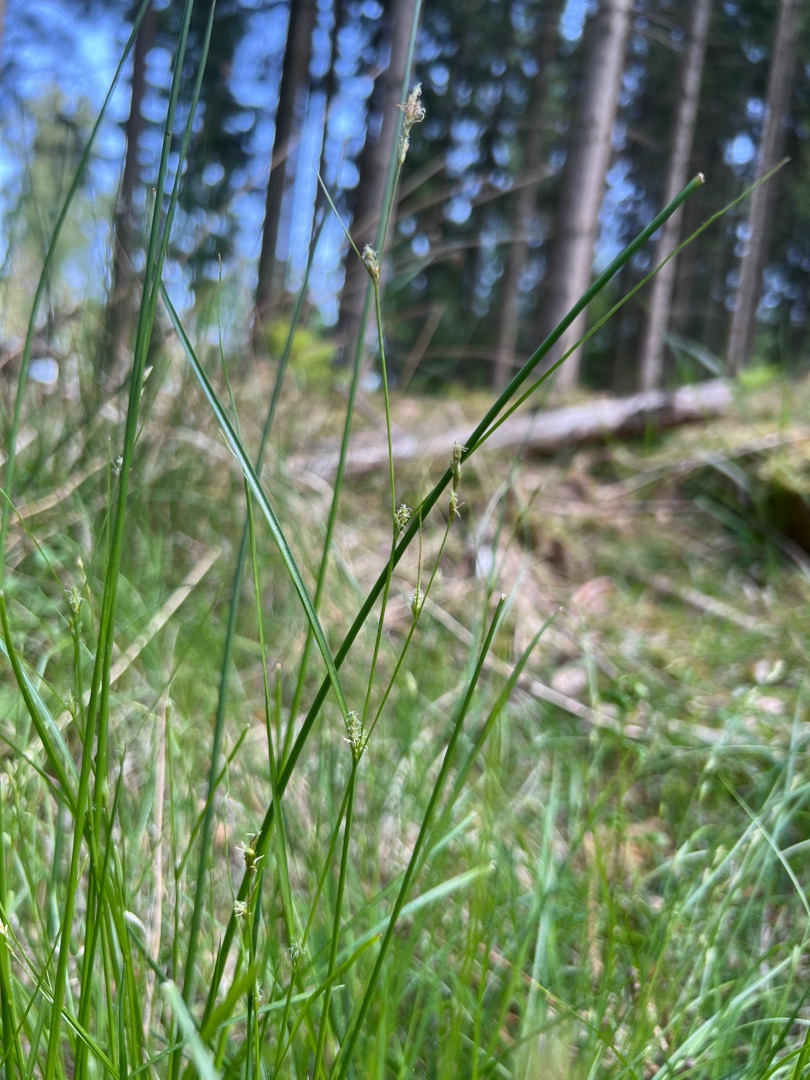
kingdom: Plantae
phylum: Tracheophyta
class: Liliopsida
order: Poales
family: Cyperaceae
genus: Carex
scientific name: Carex remota
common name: Akselblomstret star
